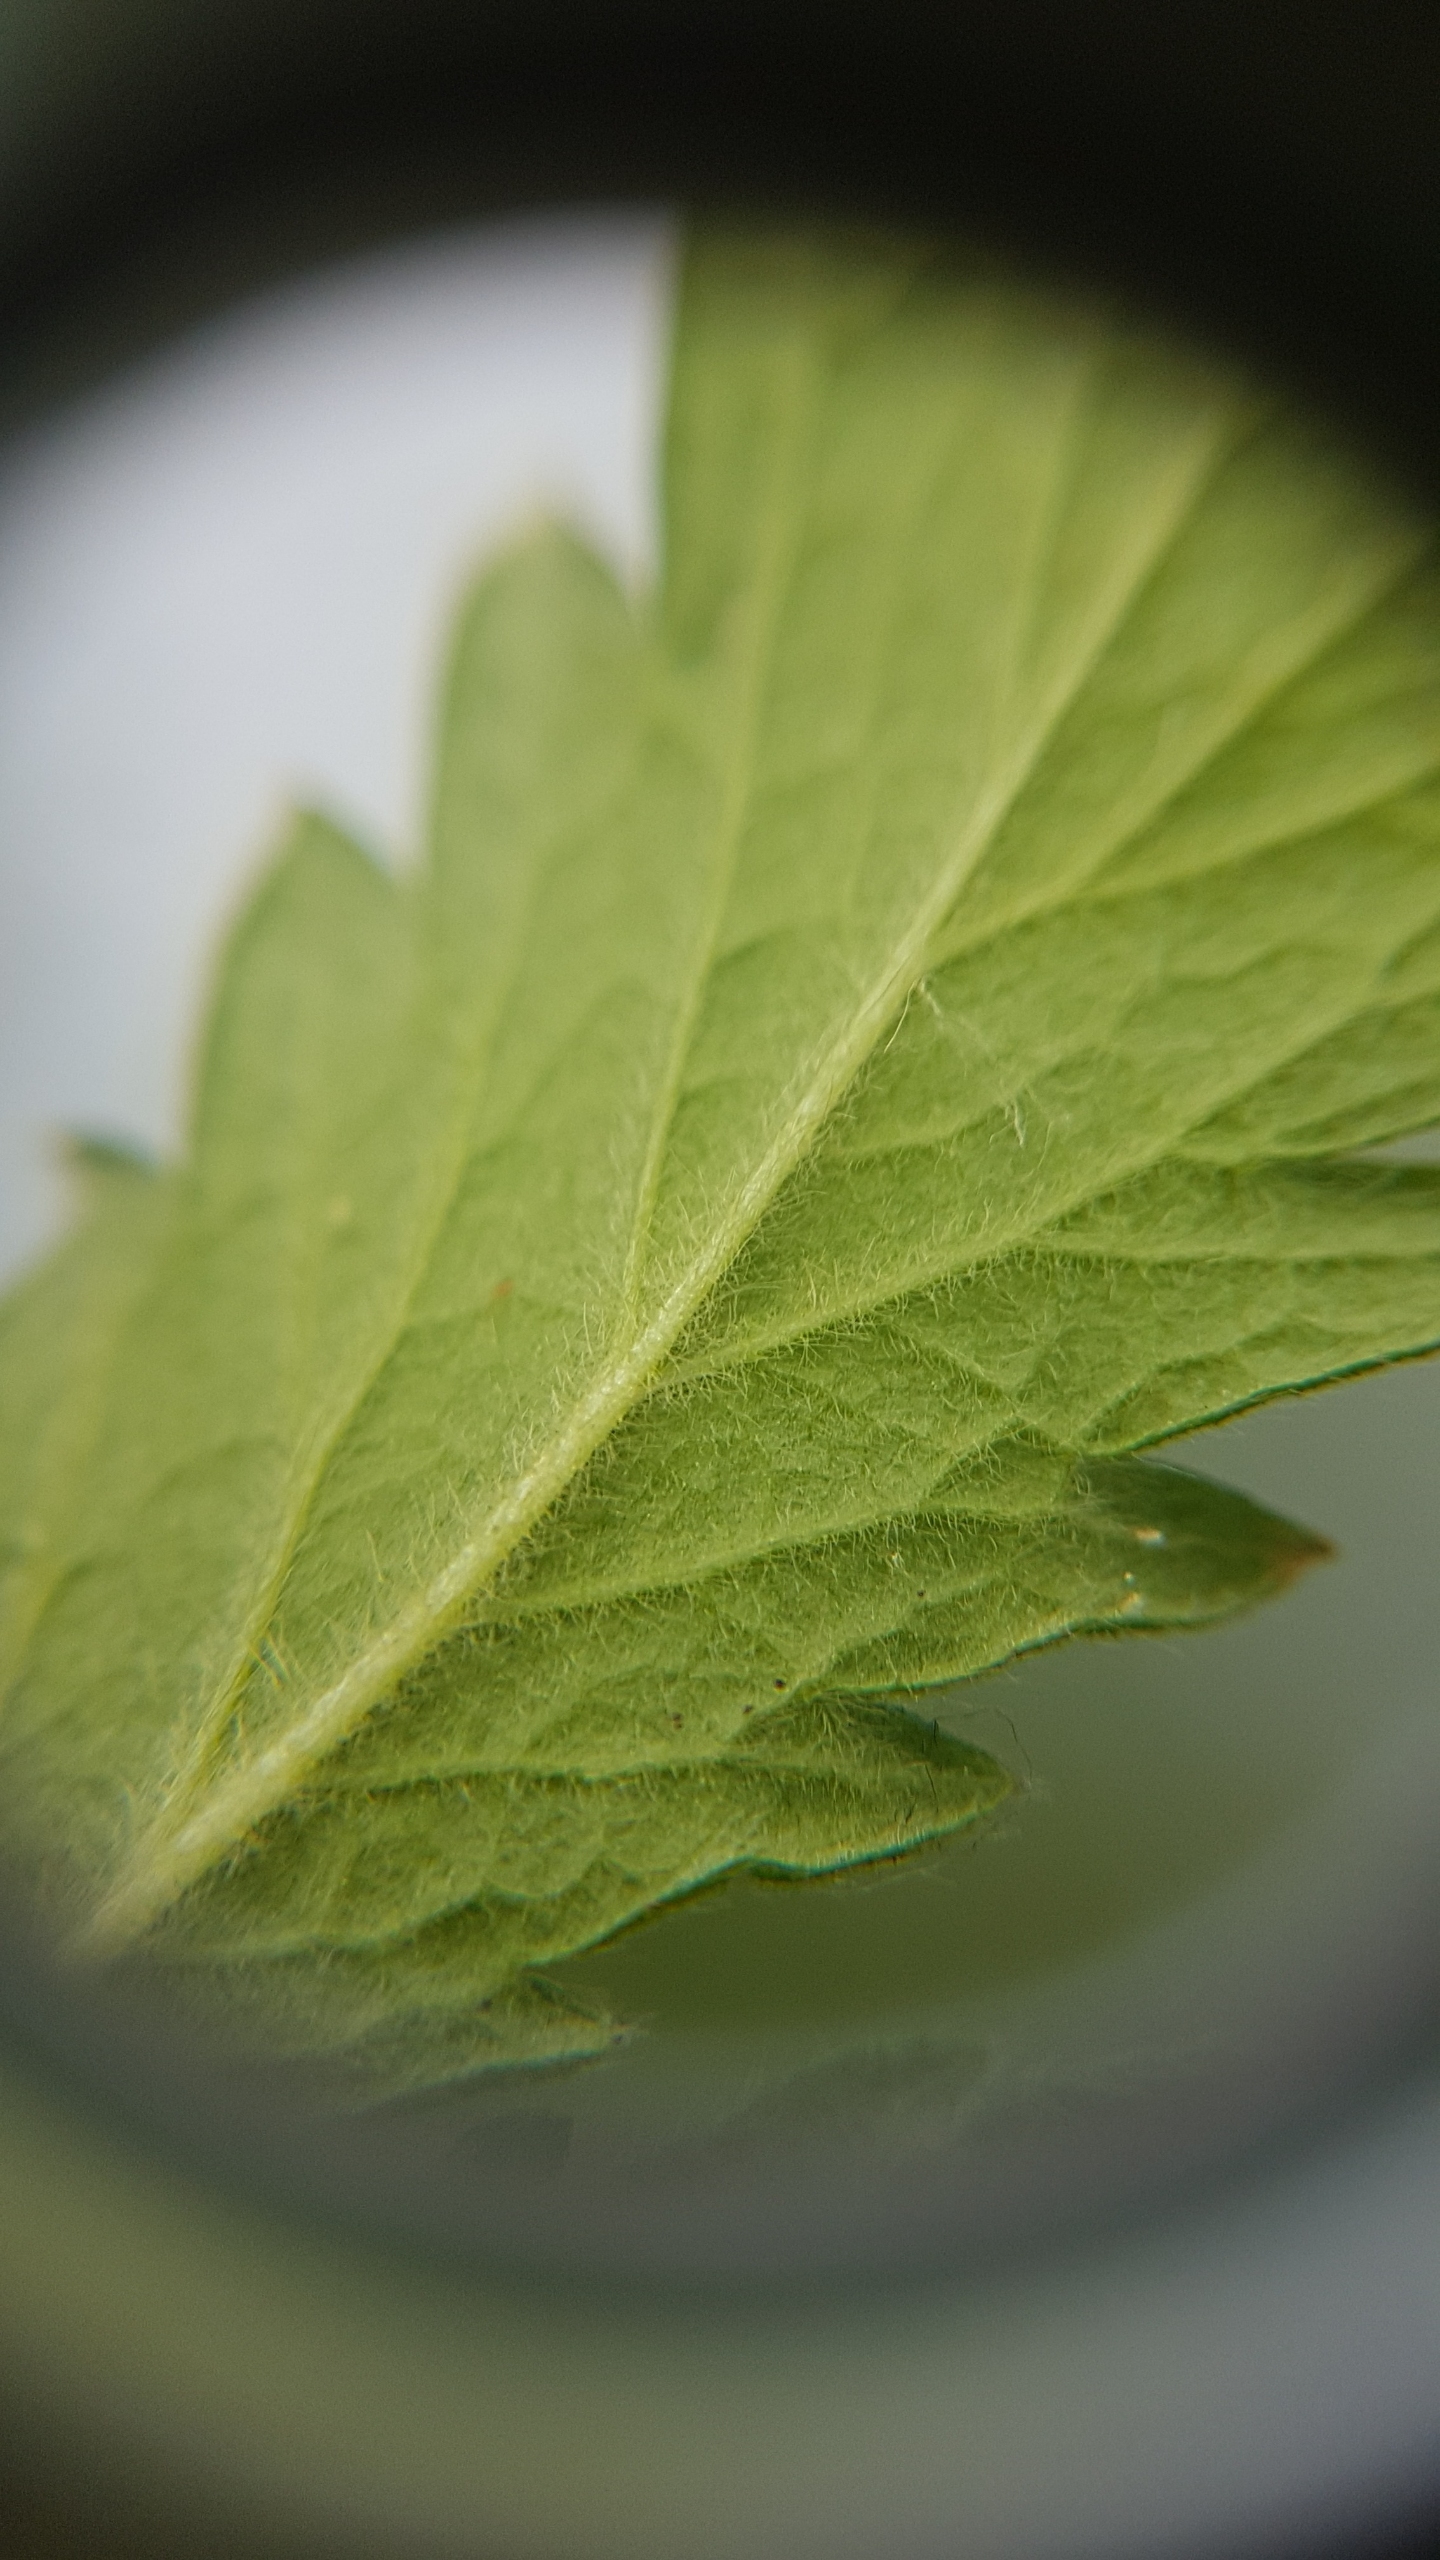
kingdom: Plantae
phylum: Tracheophyta
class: Magnoliopsida
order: Rosales
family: Rosaceae
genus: Agrimonia
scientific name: Agrimonia eupatoria
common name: Almindelig agermåne
